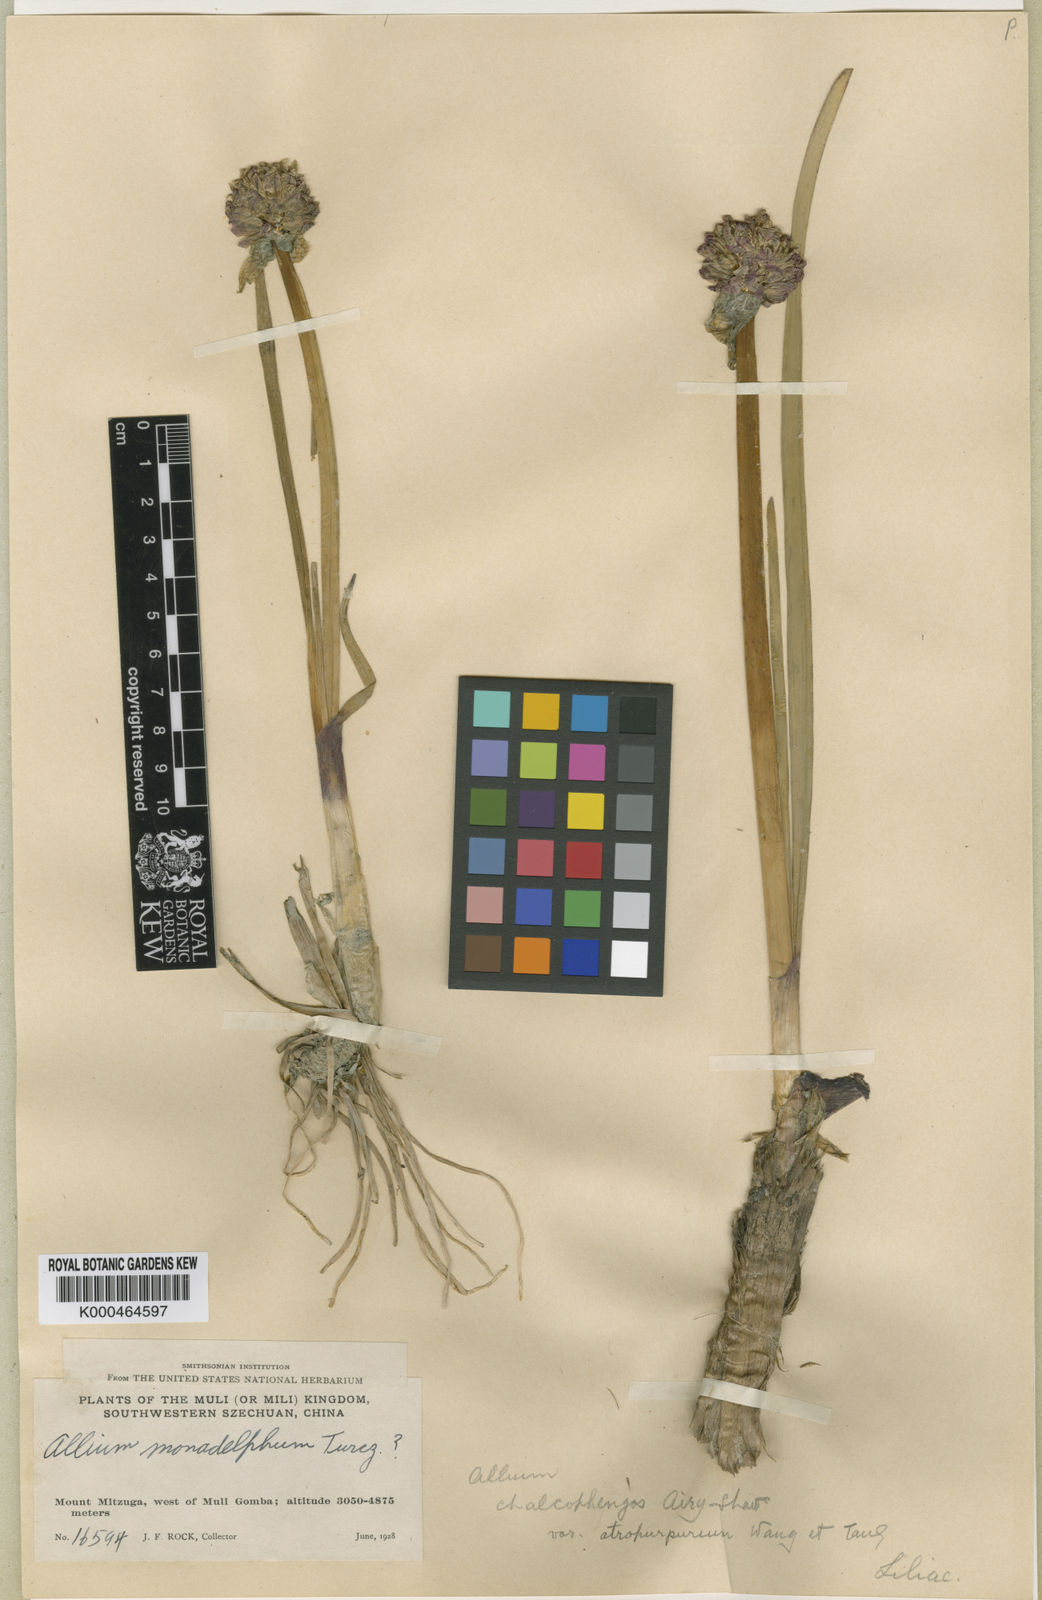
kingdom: Plantae
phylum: Tracheophyta
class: Liliopsida
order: Asparagales
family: Amaryllidaceae
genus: Allium
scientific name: Allium atrosanguineum
